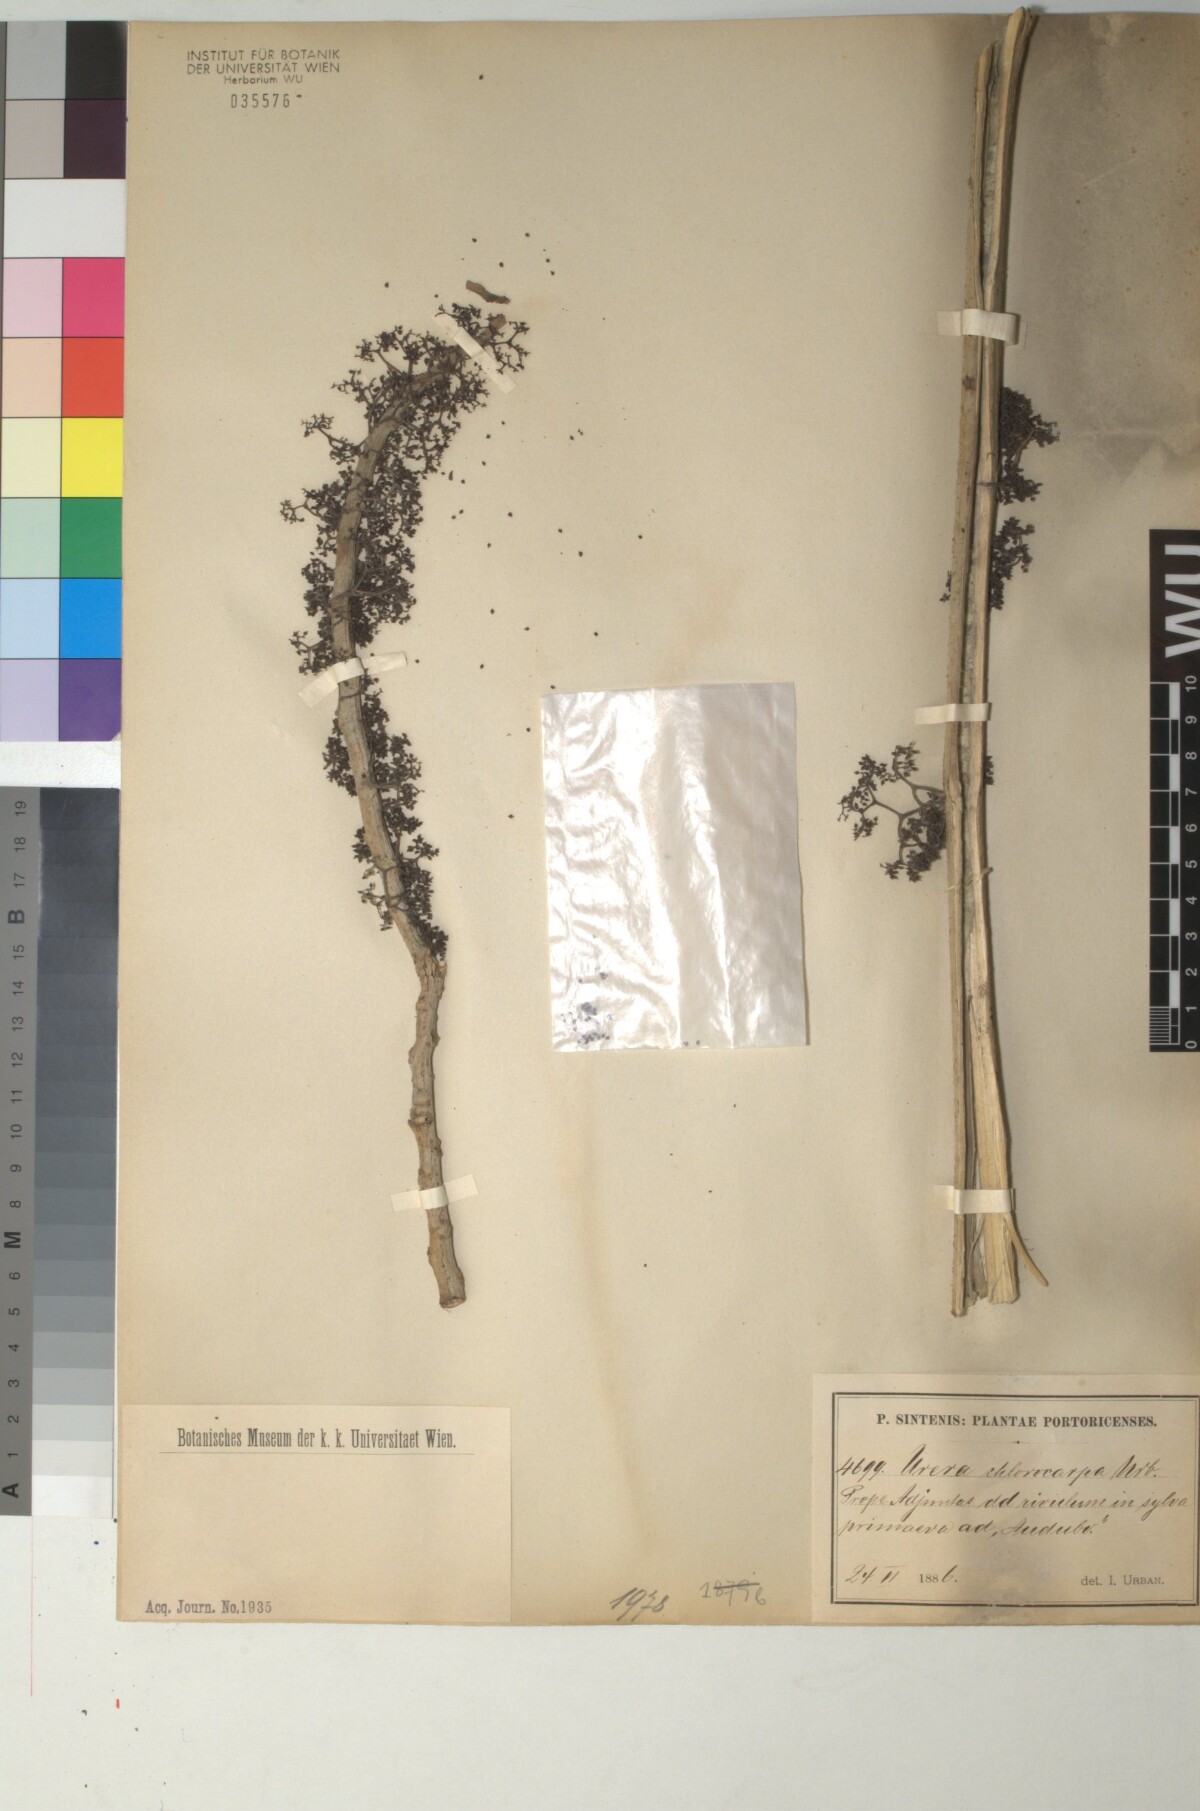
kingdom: Plantae
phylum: Tracheophyta
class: Magnoliopsida
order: Rosales
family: Urticaceae
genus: Urera
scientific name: Urera chlorocarpa
